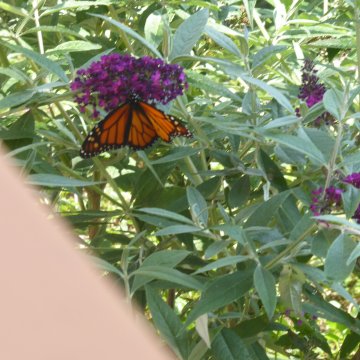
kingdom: Animalia
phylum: Arthropoda
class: Insecta
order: Lepidoptera
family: Nymphalidae
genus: Danaus
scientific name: Danaus plexippus
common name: Monarch
